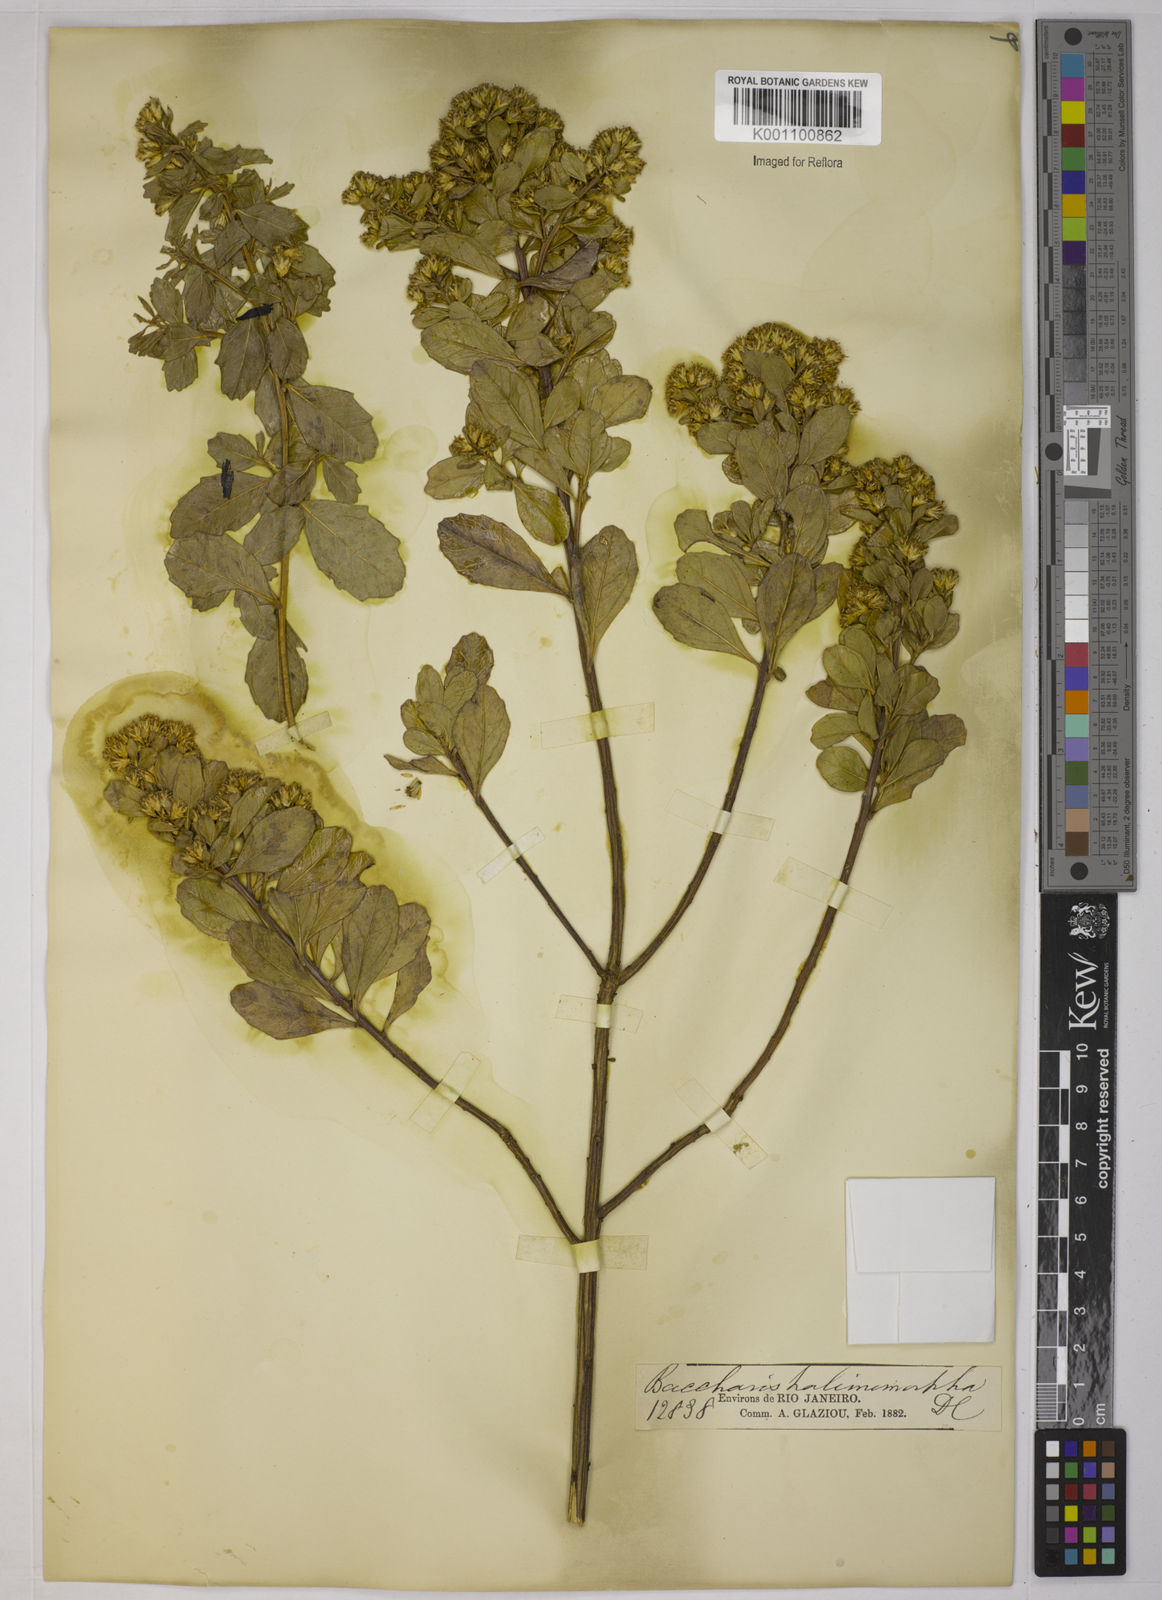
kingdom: Plantae
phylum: Tracheophyta
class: Magnoliopsida
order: Asterales
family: Asteraceae
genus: Baccharis
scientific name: Baccharis
